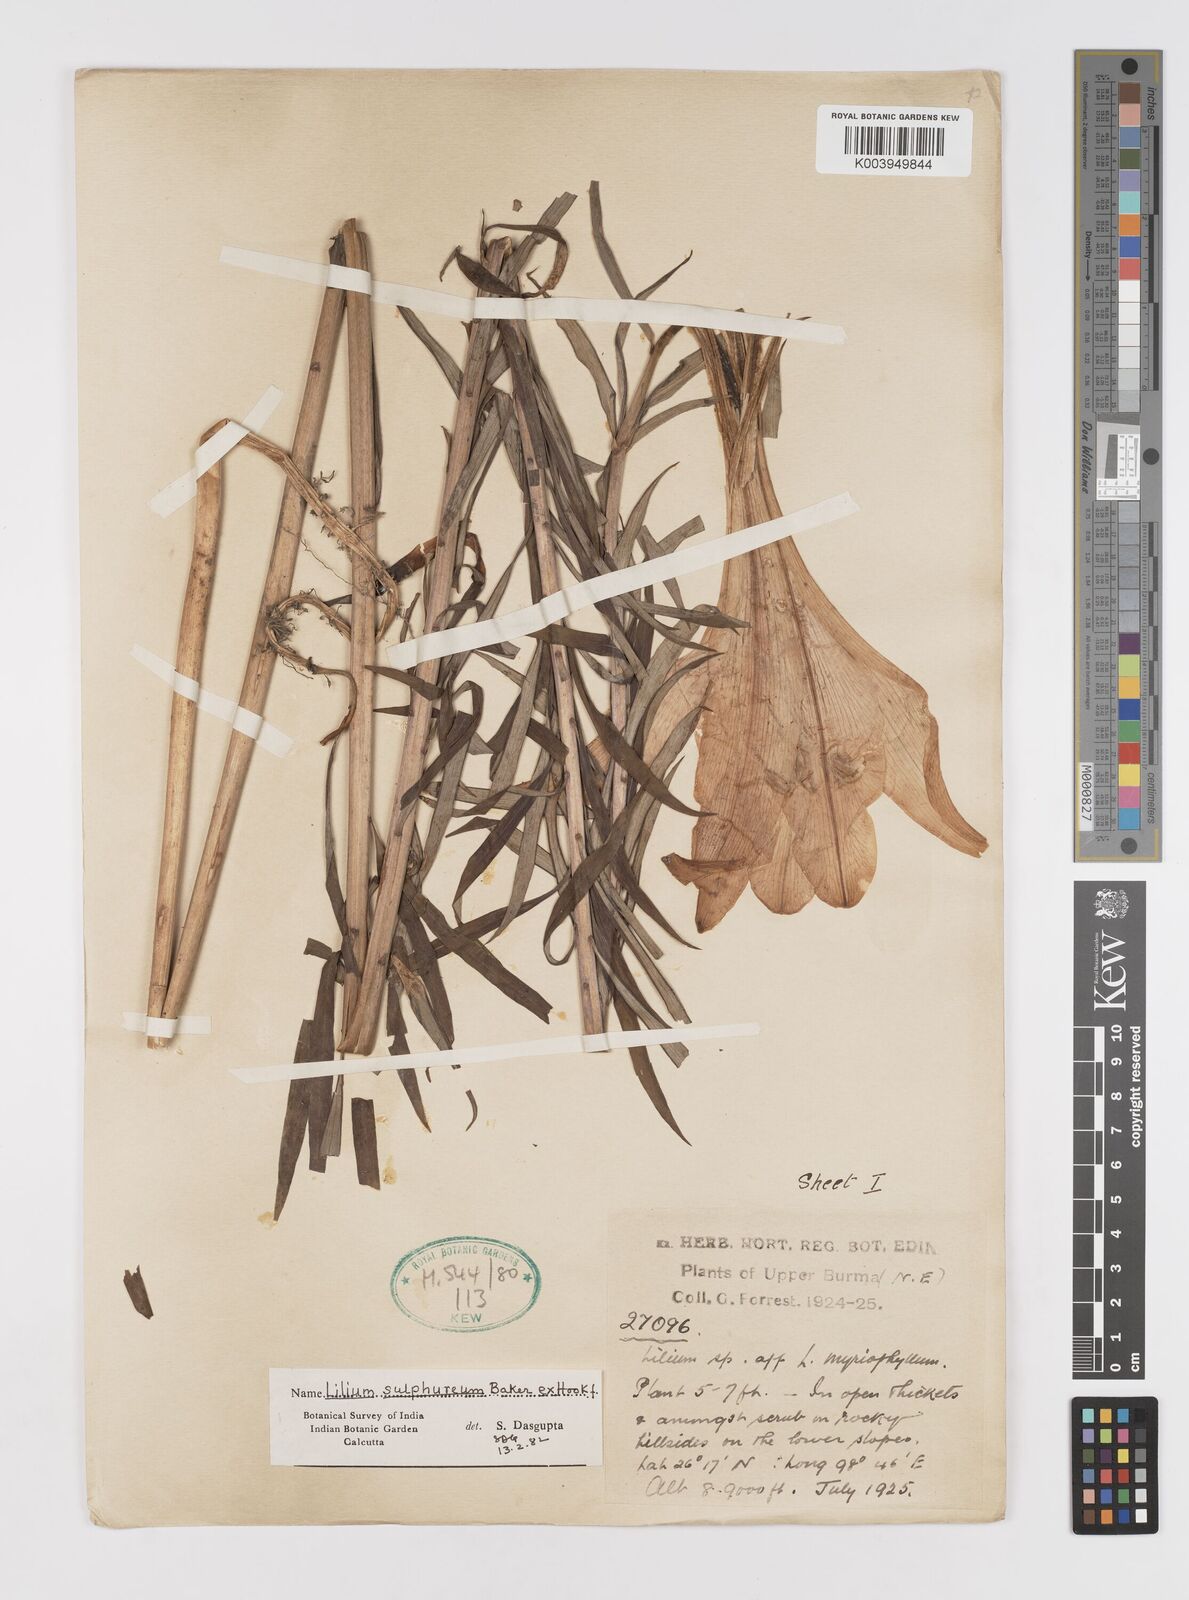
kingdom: Plantae
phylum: Tracheophyta
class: Liliopsida
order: Liliales
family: Liliaceae
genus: Lilium
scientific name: Lilium sulphureum
